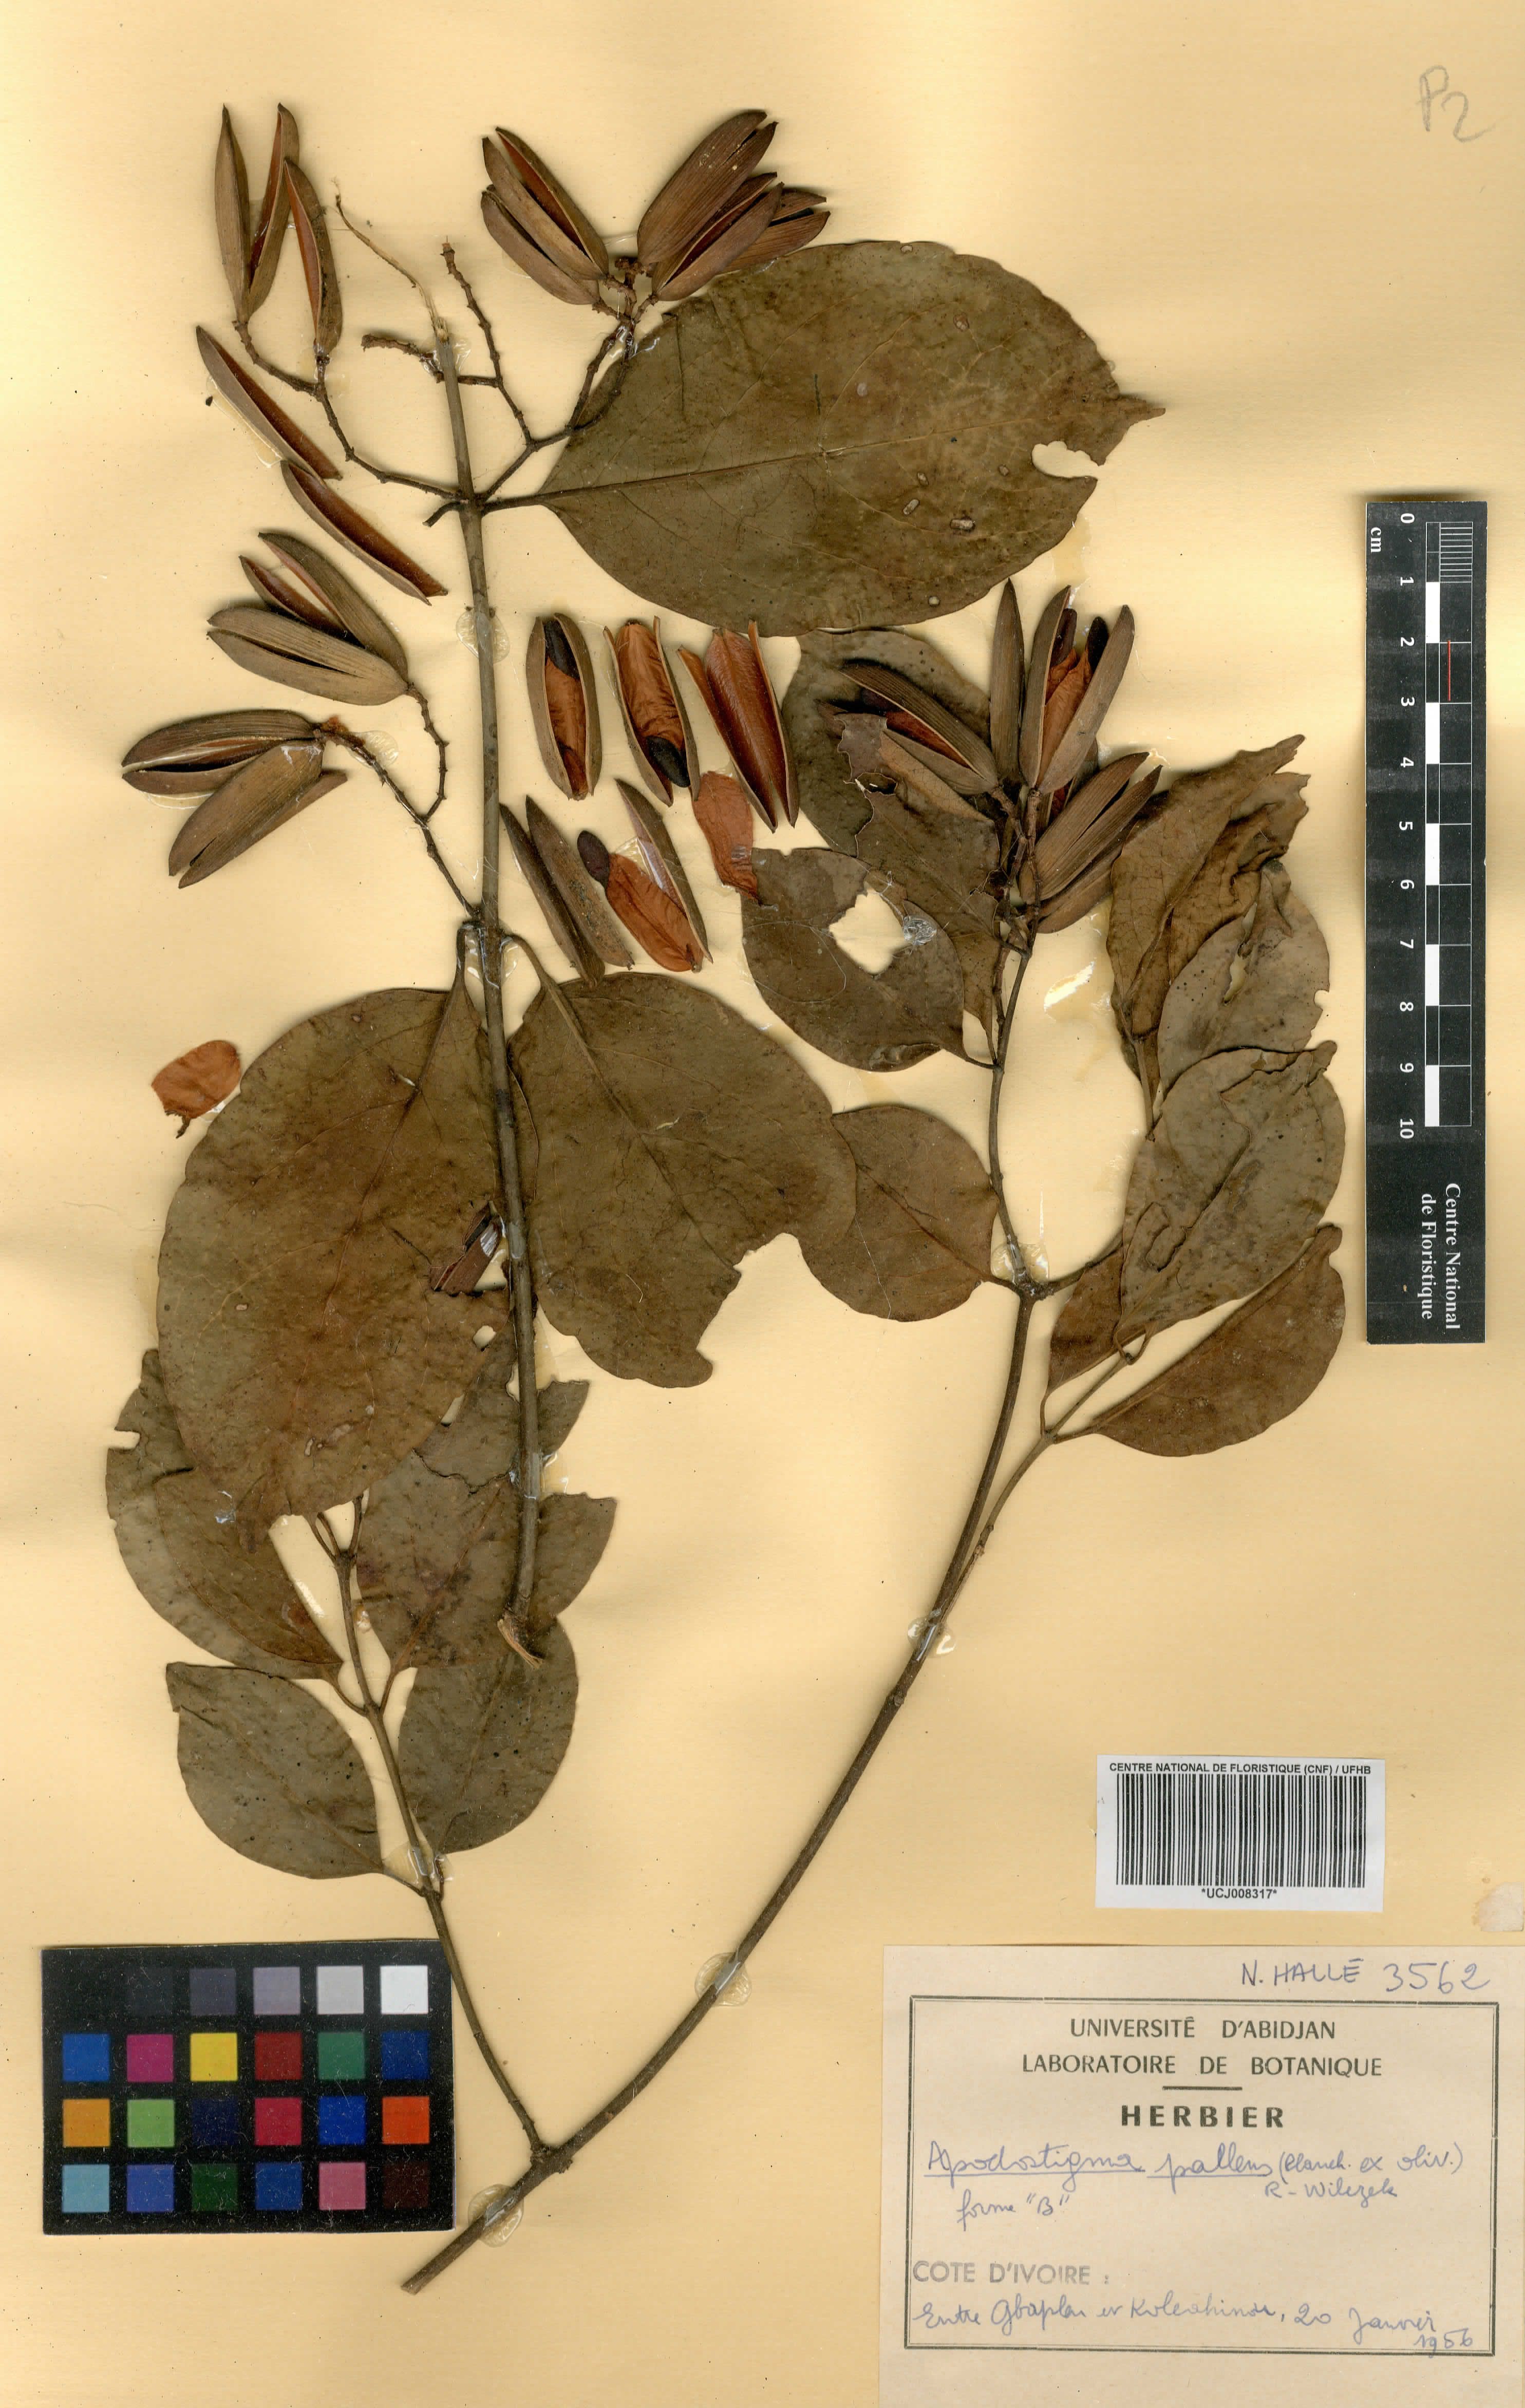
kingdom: Plantae
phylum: Tracheophyta
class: Magnoliopsida
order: Celastrales
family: Celastraceae
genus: Apodostigma
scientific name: Apodostigma pallens
